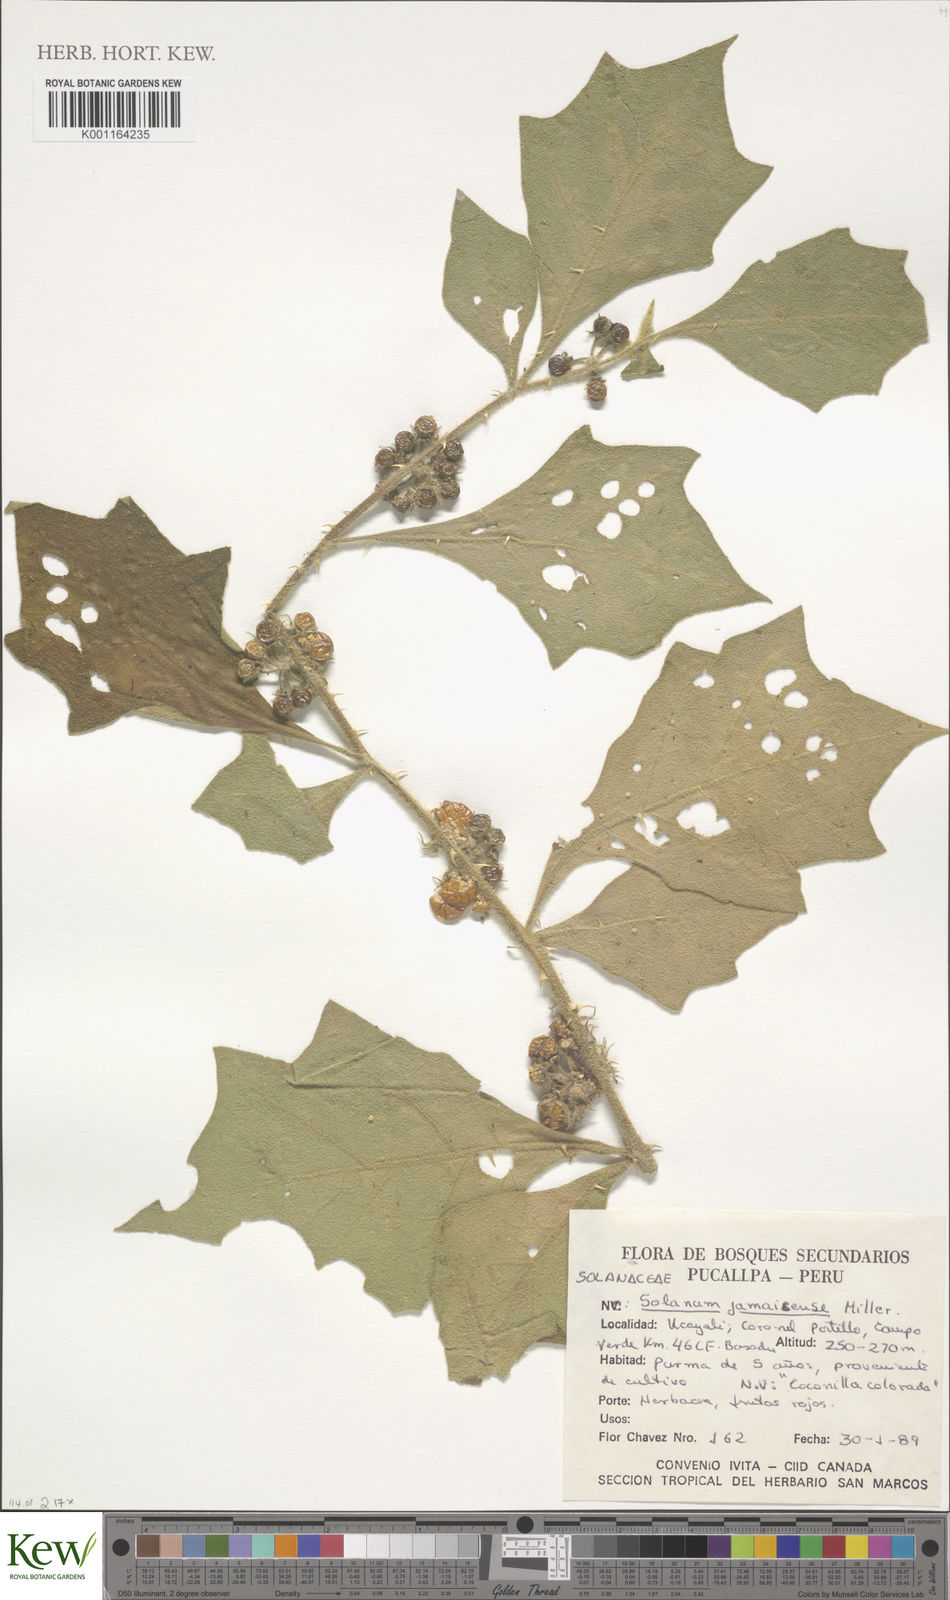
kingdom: Plantae
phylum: Tracheophyta
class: Magnoliopsida
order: Solanales
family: Solanaceae
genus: Solanum
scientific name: Solanum jamaicense
